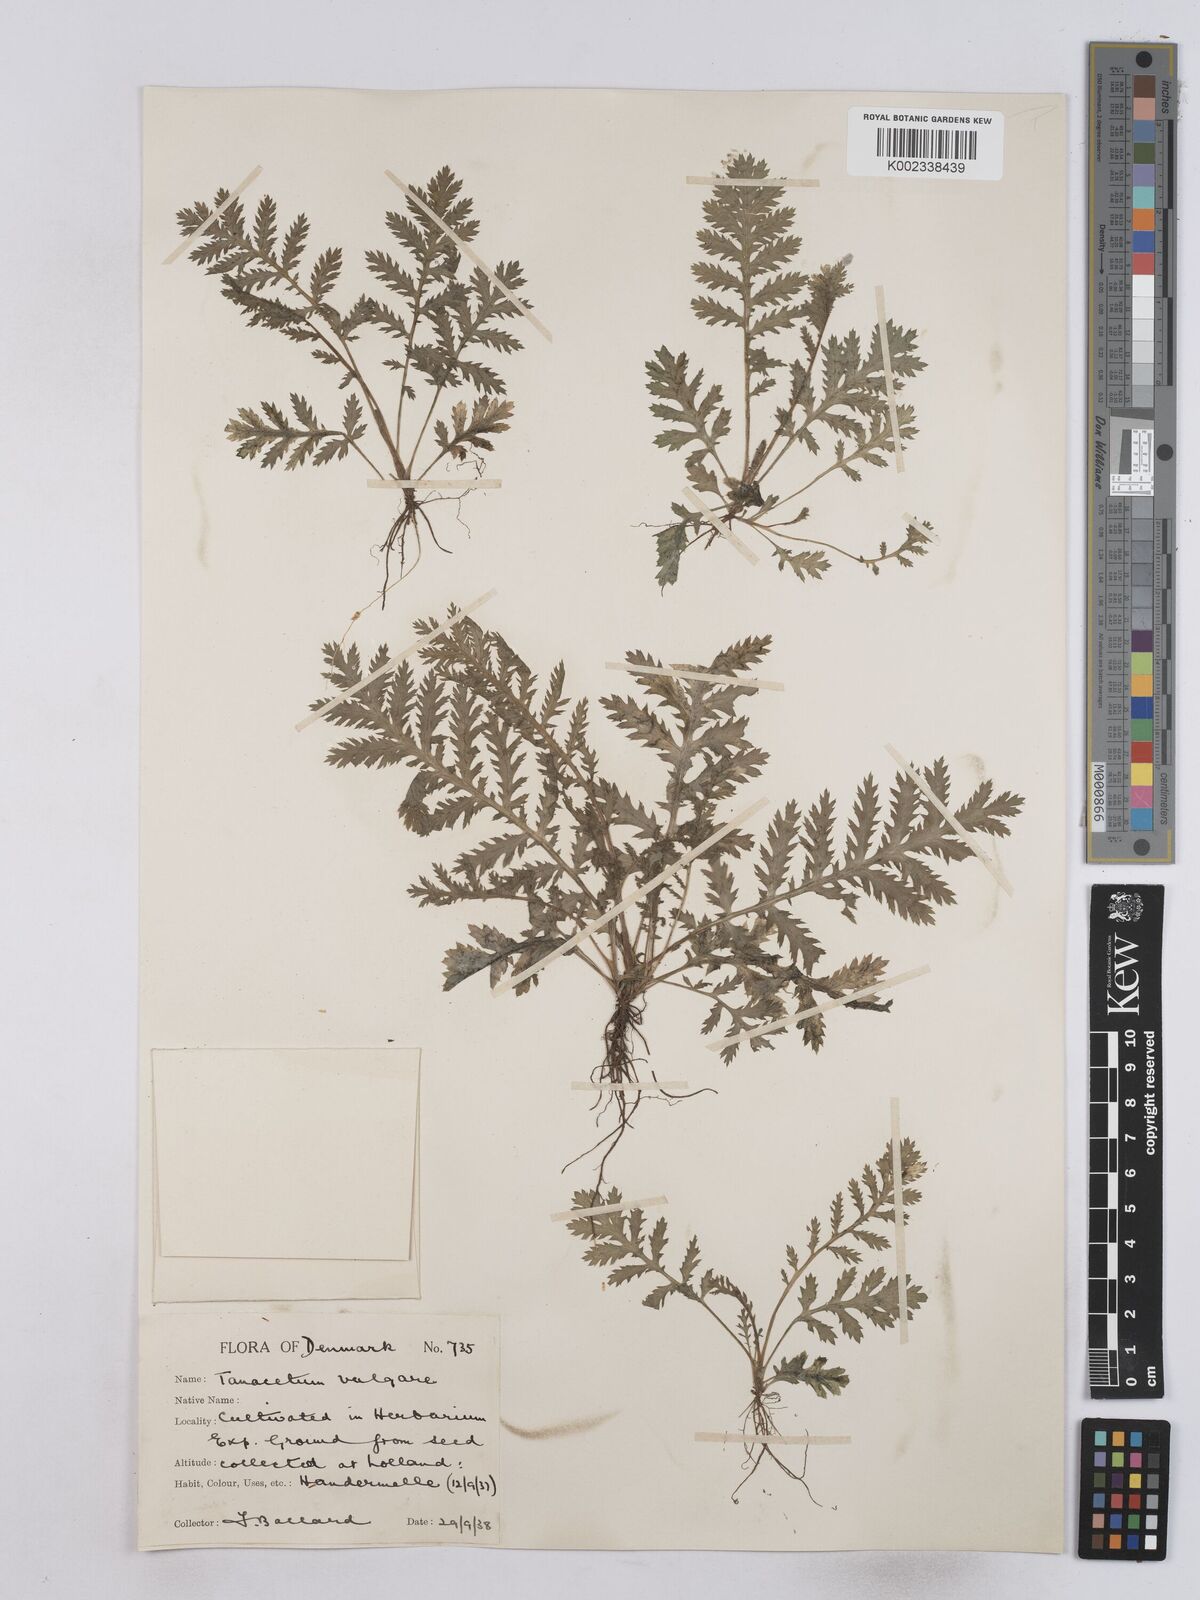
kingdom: Plantae
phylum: Tracheophyta
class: Magnoliopsida
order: Asterales
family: Asteraceae
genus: Tanacetum
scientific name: Tanacetum vulgare
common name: Common tansy
